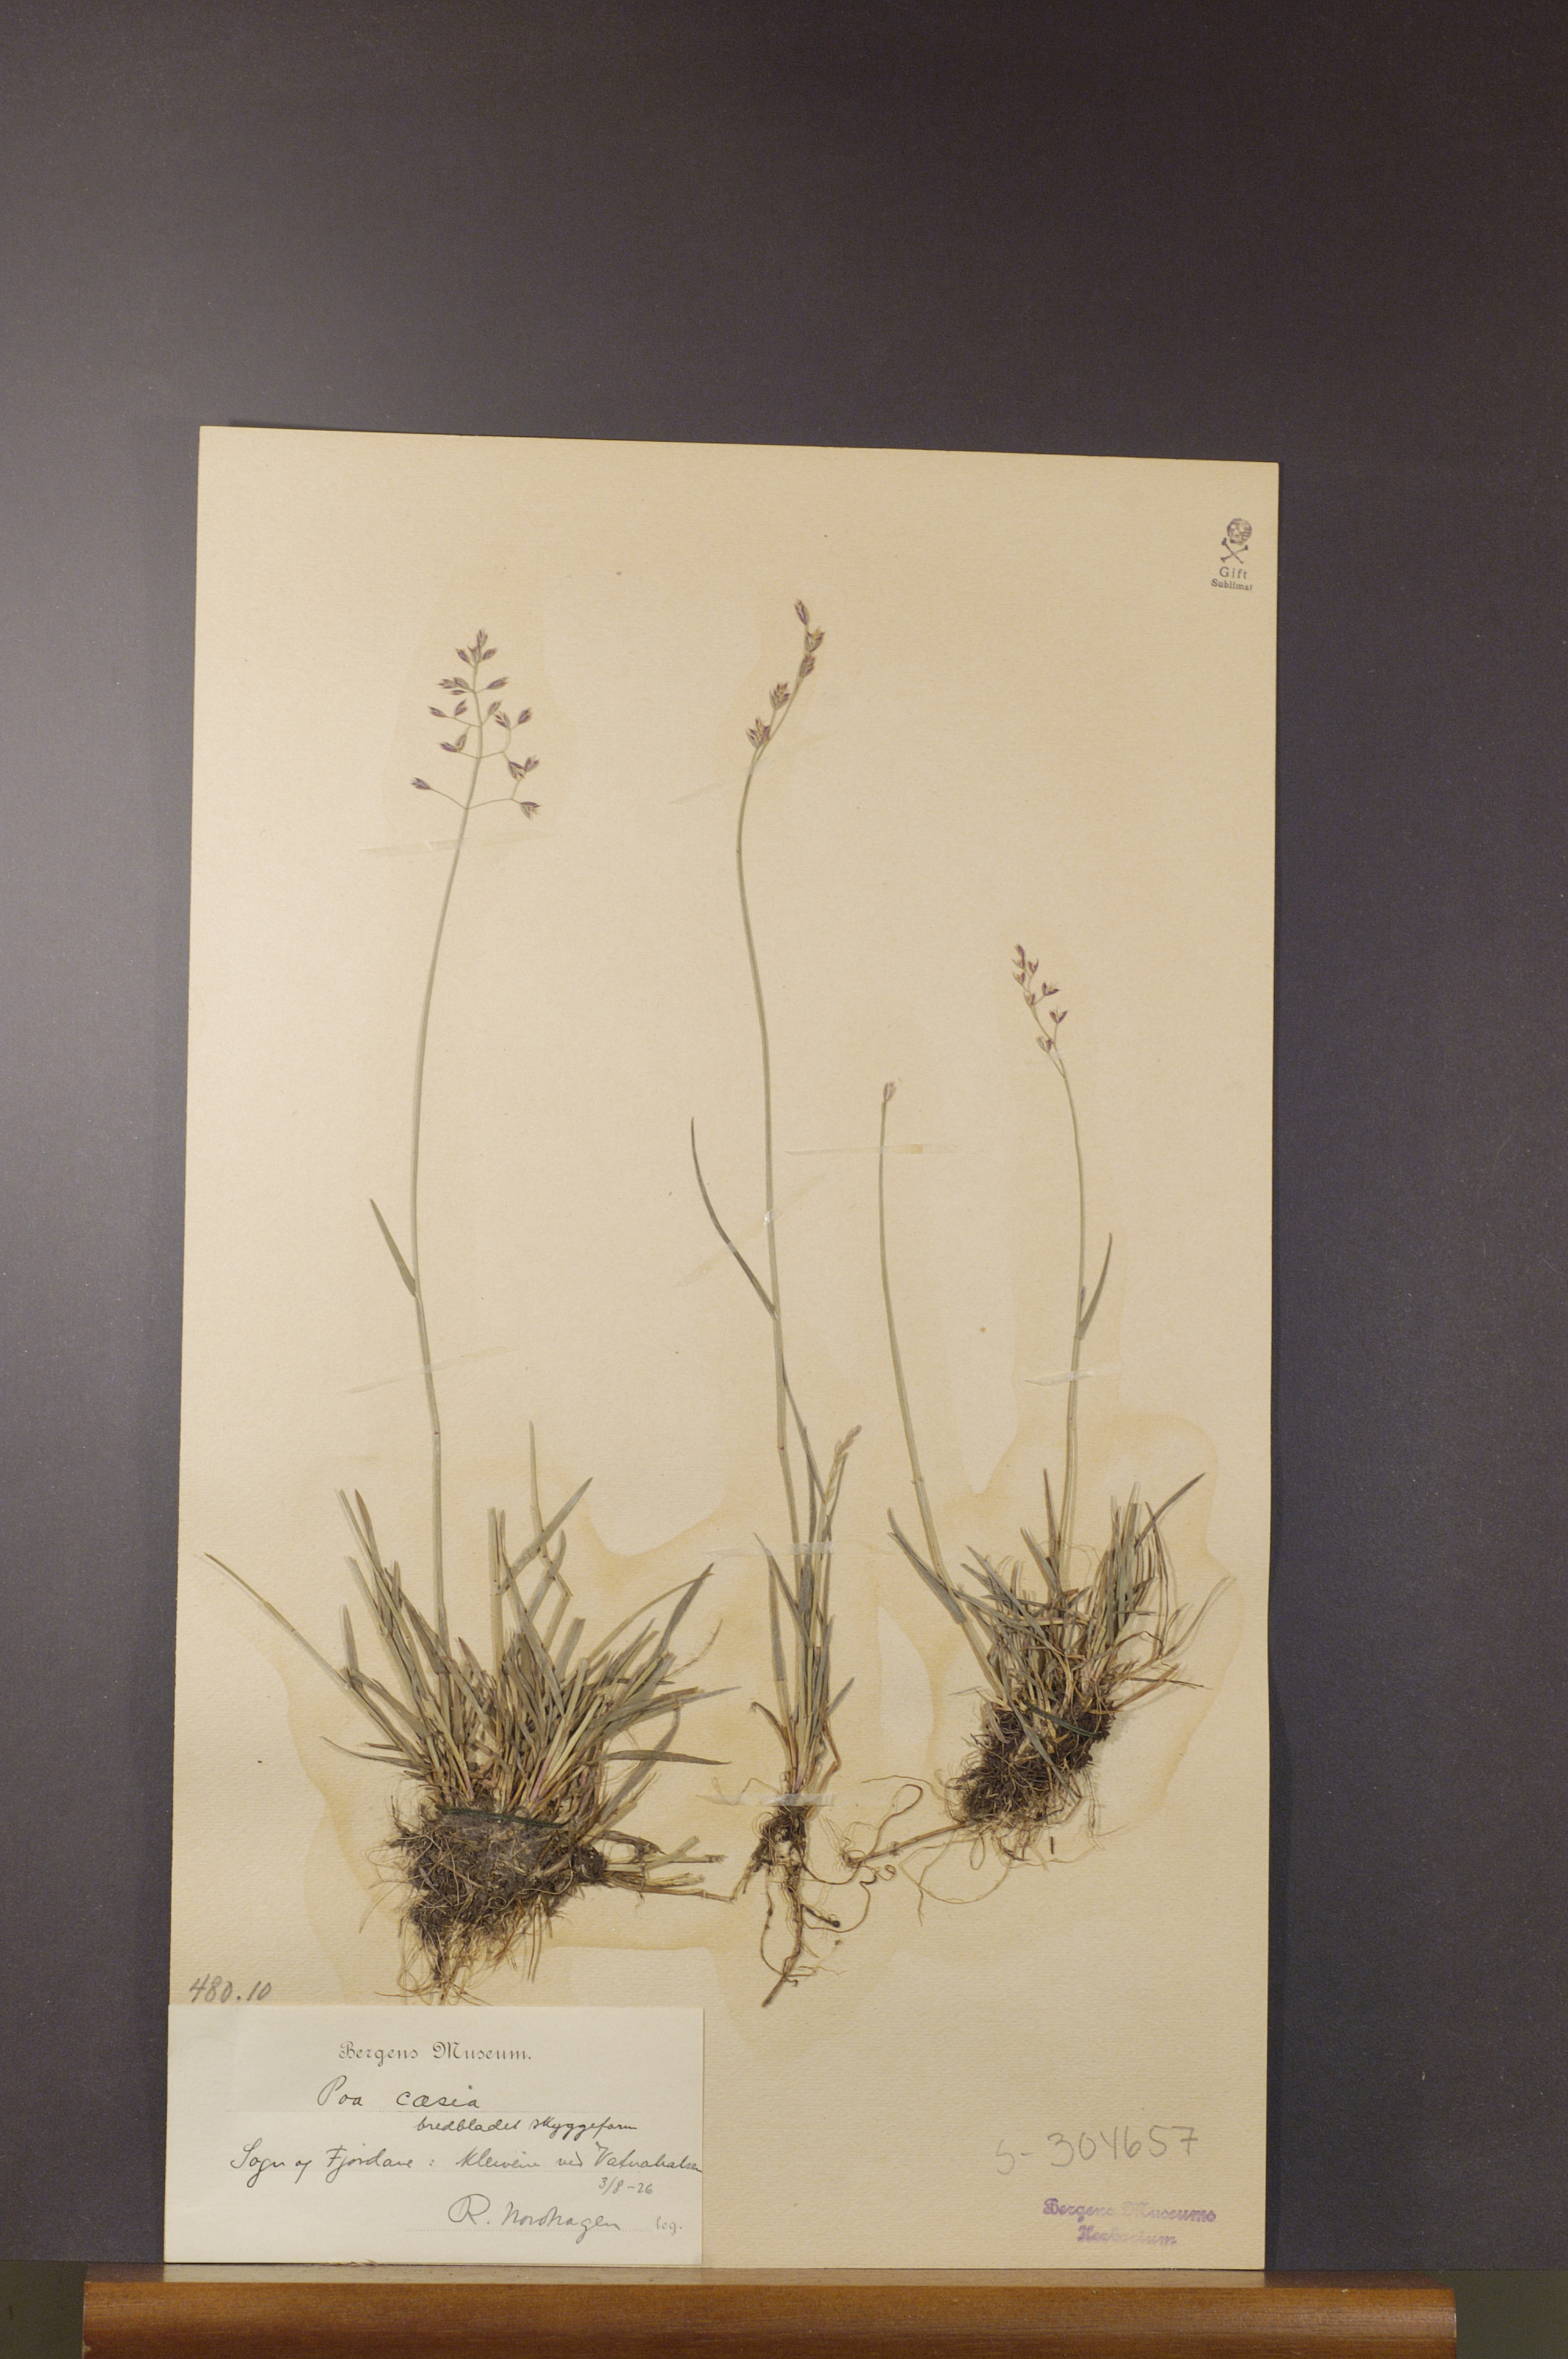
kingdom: Plantae
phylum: Tracheophyta
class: Liliopsida
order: Poales
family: Poaceae
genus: Poa
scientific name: Poa glauca
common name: Glaucous bluegrass
